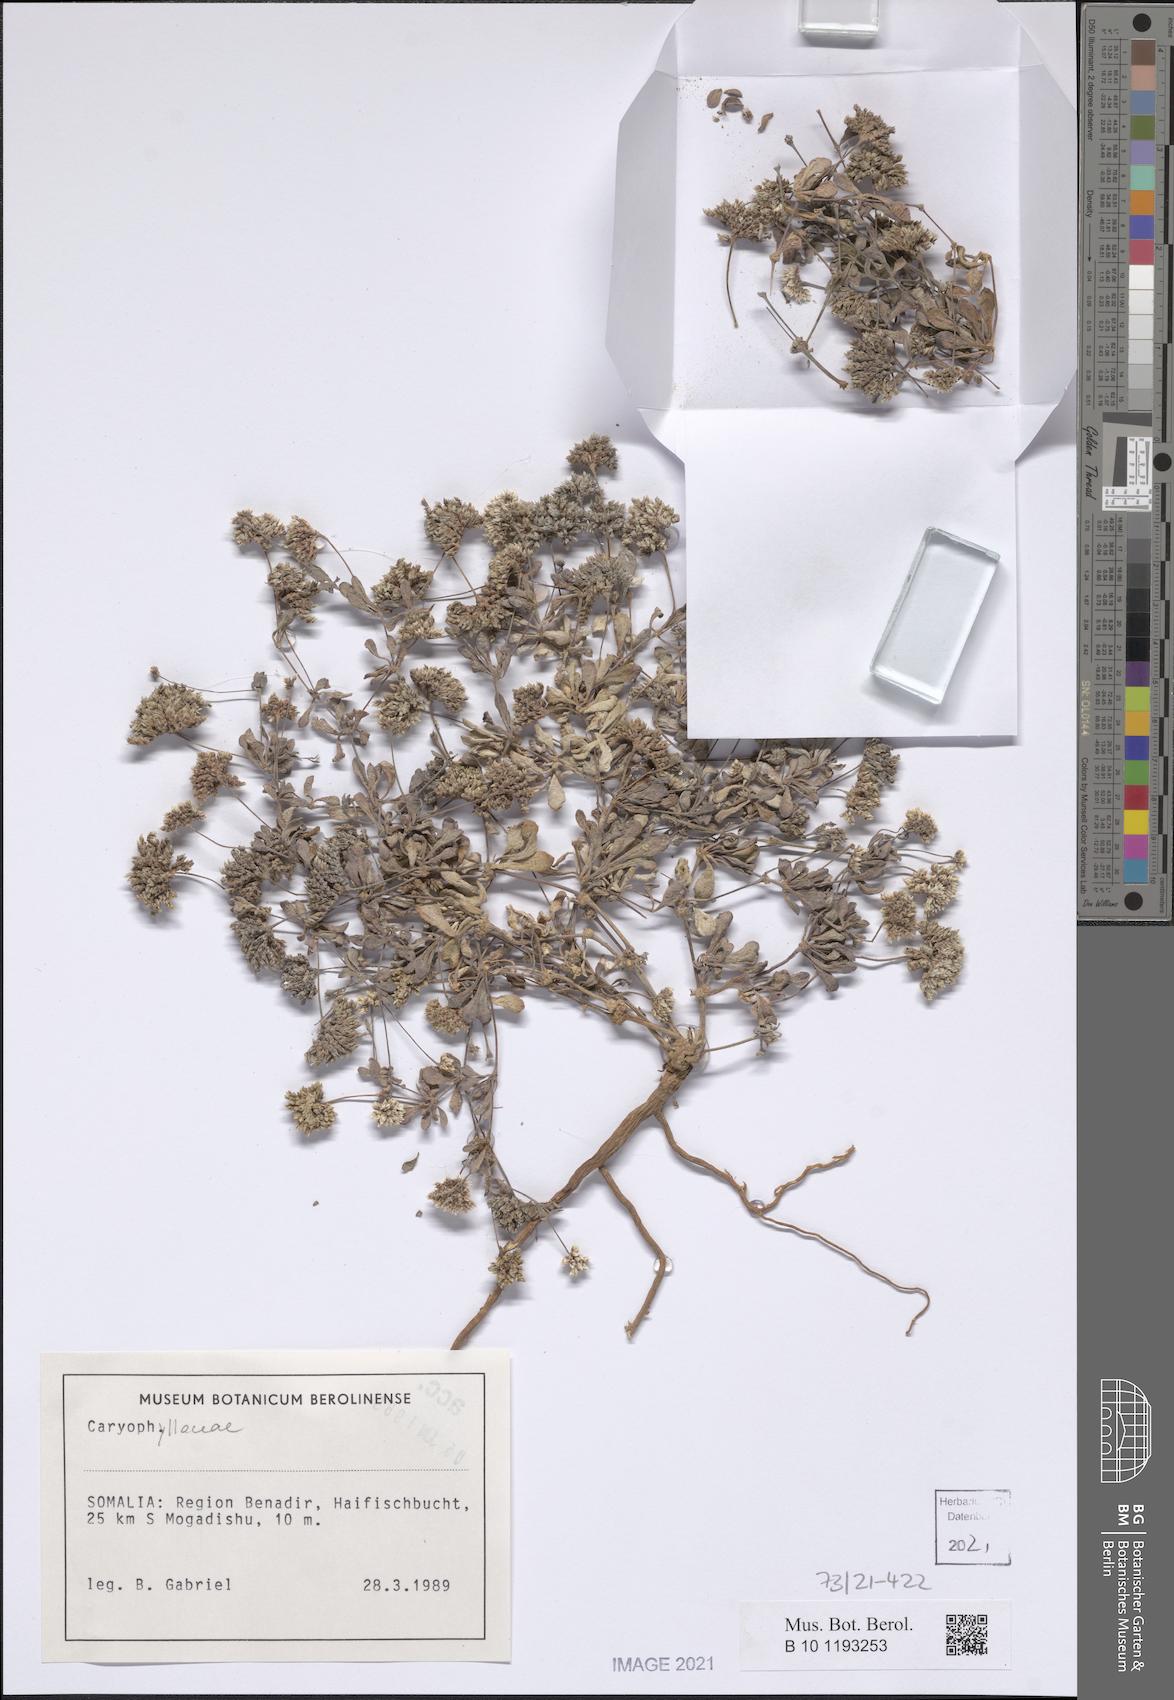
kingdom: Plantae
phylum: Tracheophyta
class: Magnoliopsida
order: Caryophyllales
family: Caryophyllaceae
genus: Polycarpaea
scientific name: Polycarpaea somalensis
